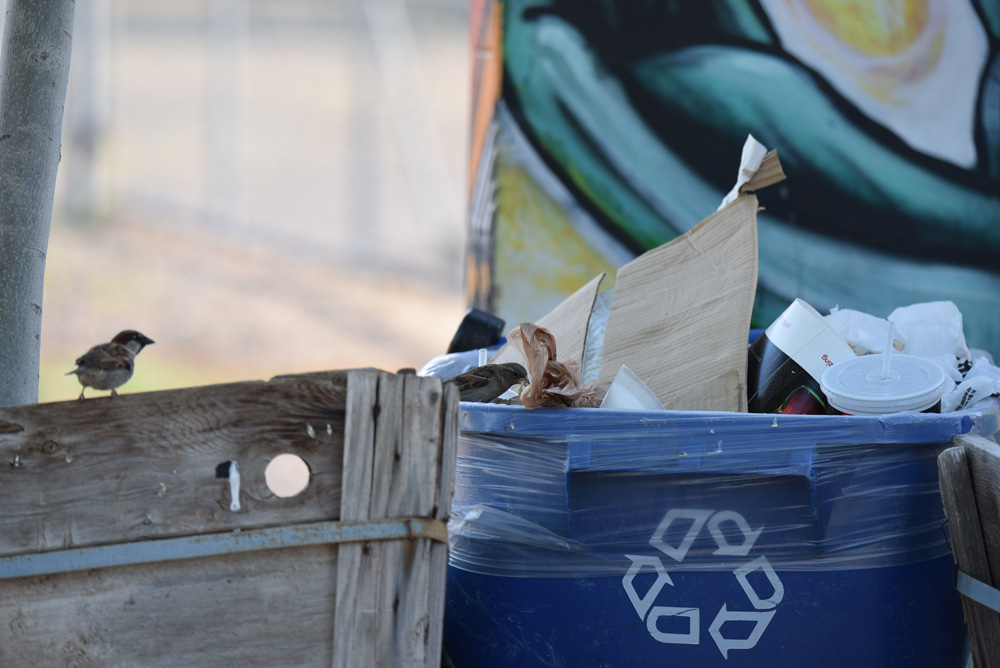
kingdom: Animalia
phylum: Chordata
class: Aves
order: Passeriformes
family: Passeridae
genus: Passer
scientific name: Passer domesticus
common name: House sparrow
